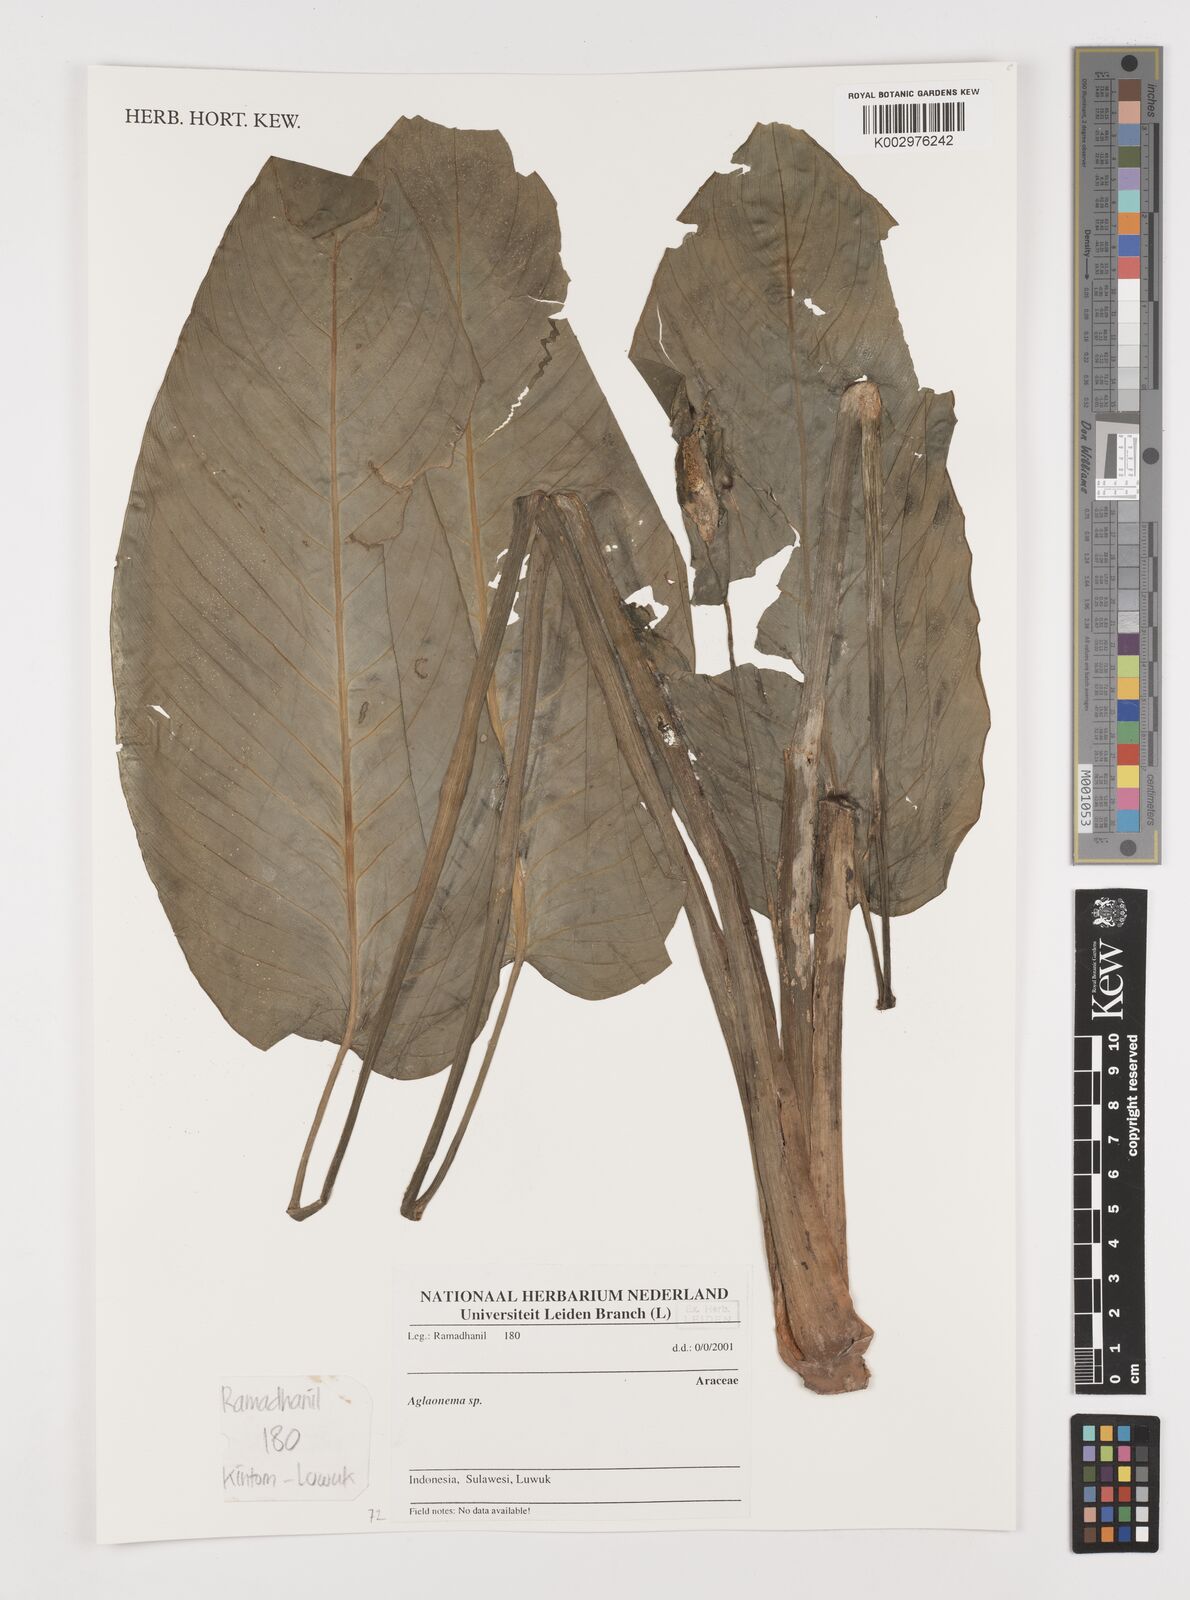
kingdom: Plantae
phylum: Tracheophyta
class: Liliopsida
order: Alismatales
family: Araceae
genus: Aglaonema
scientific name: Aglaonema
